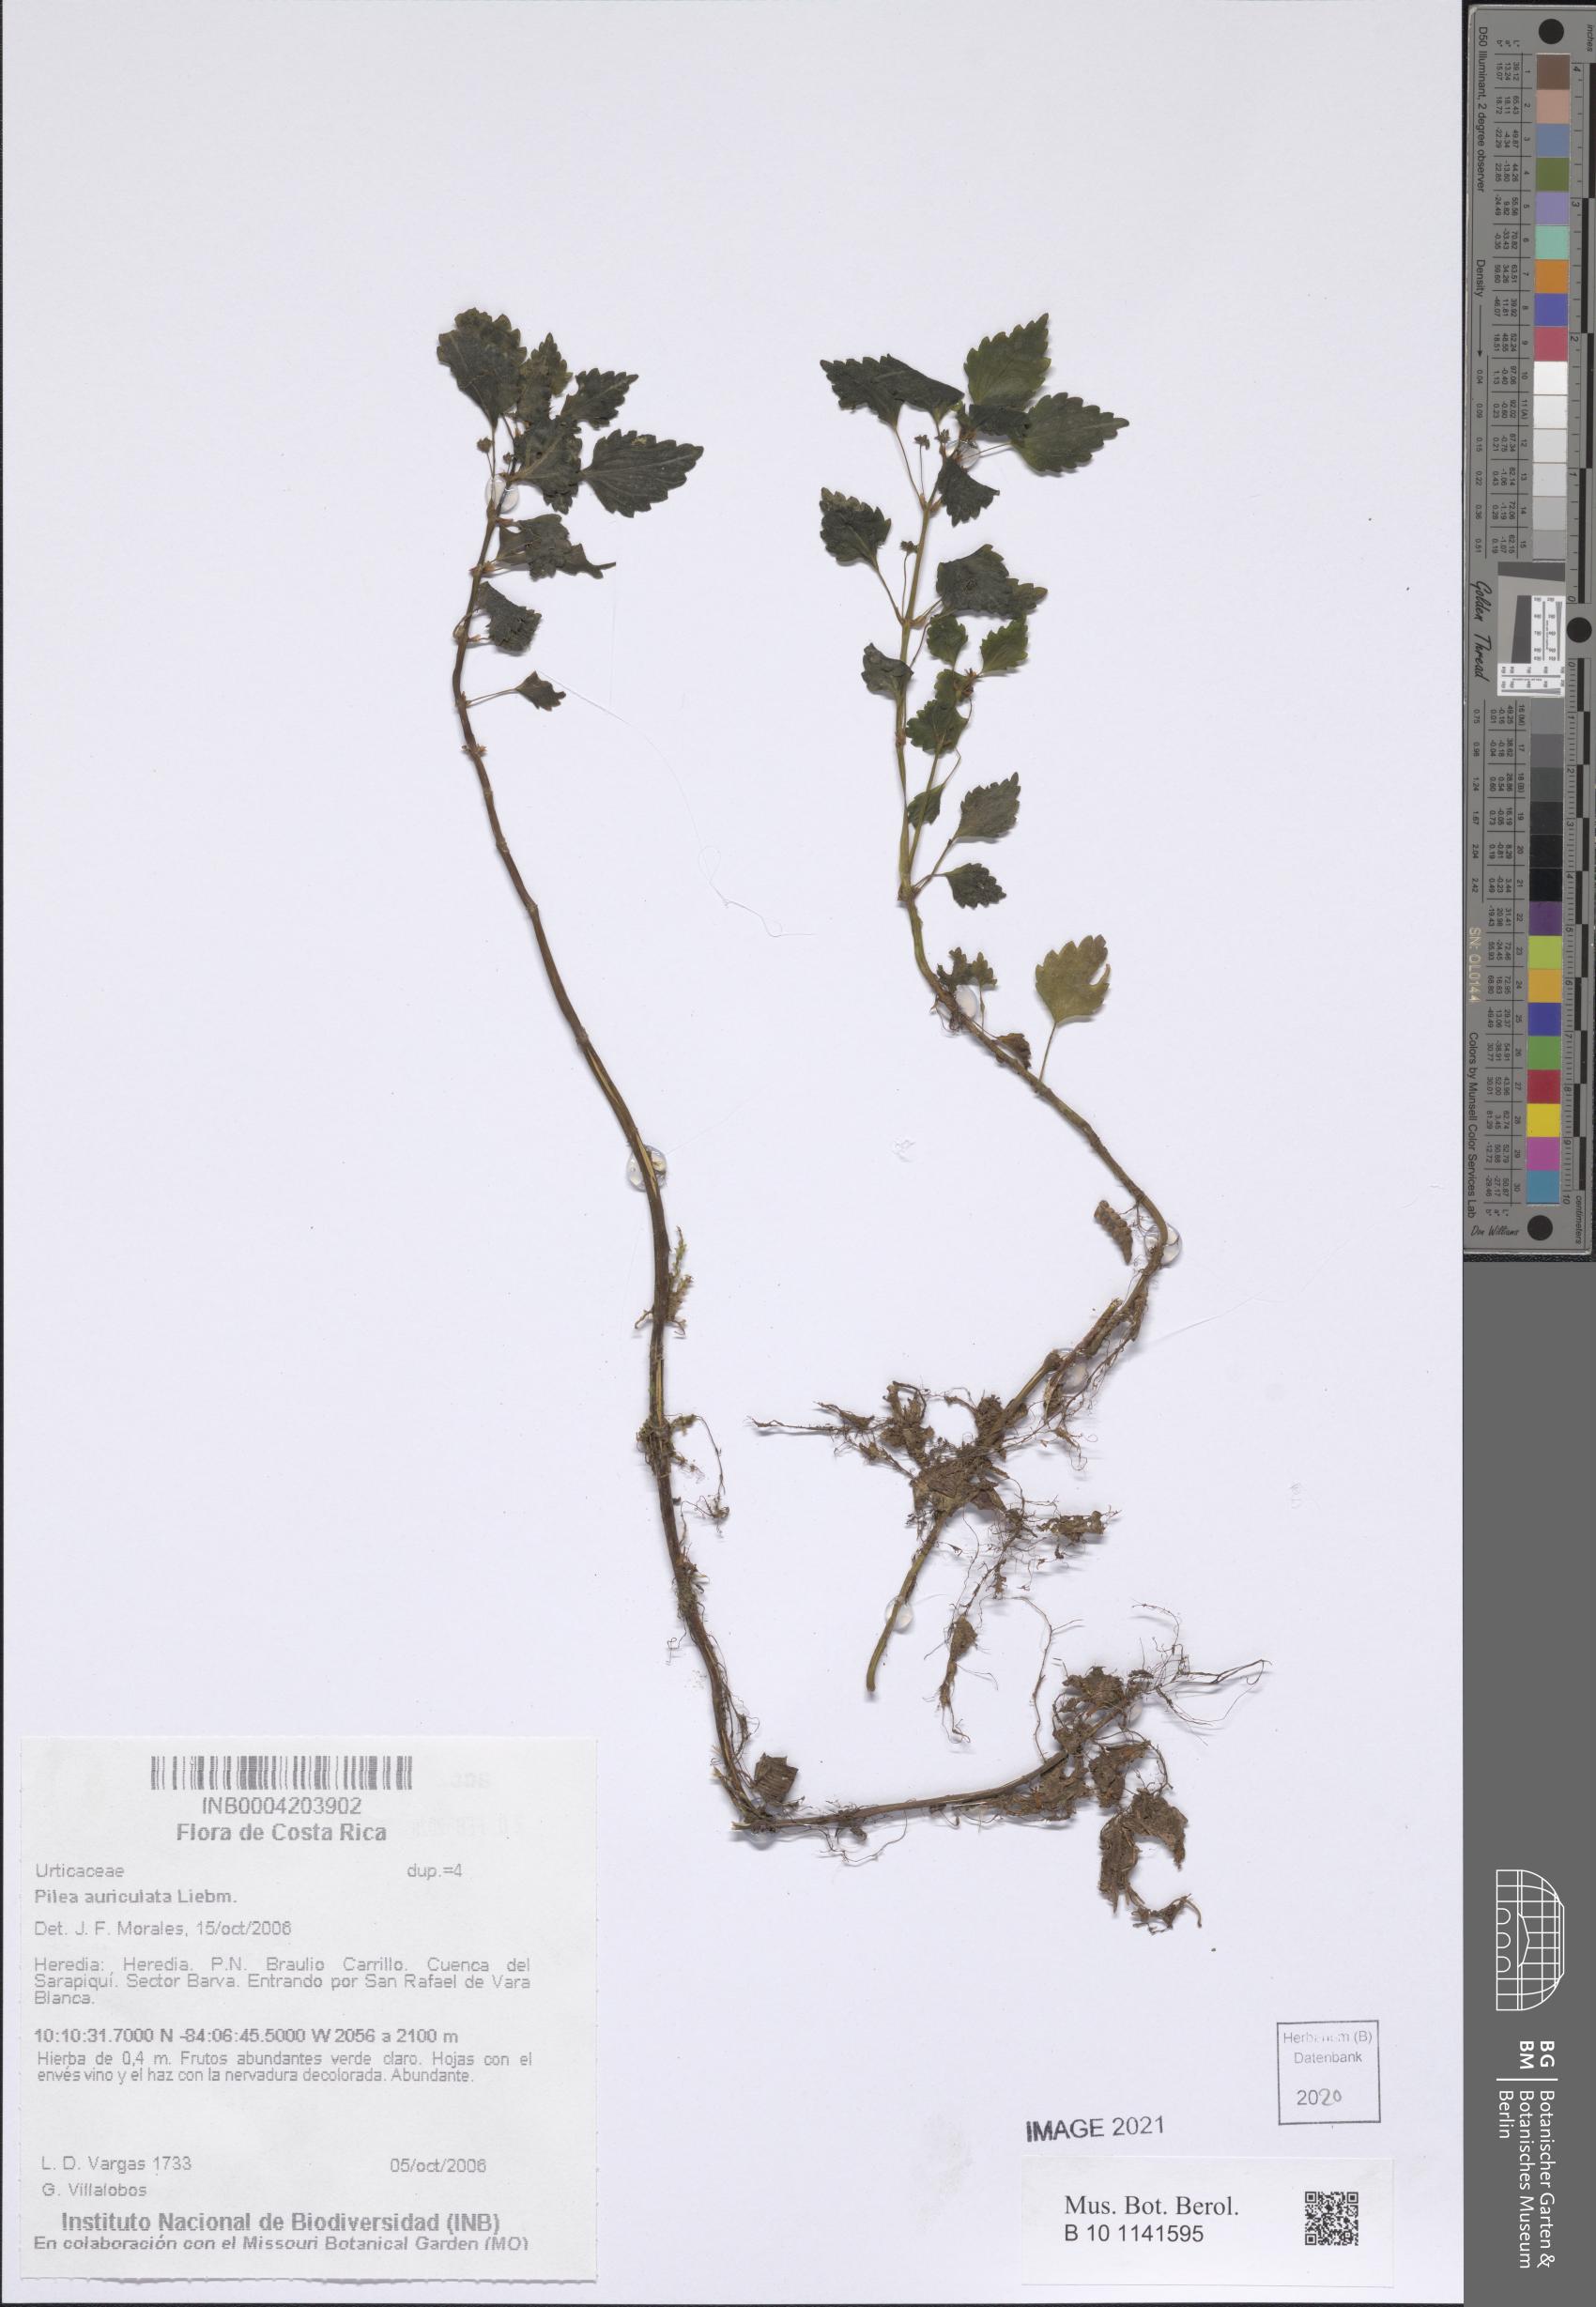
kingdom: Plantae
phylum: Tracheophyta
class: Magnoliopsida
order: Rosales
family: Urticaceae
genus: Pilea
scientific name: Pilea auriculata
